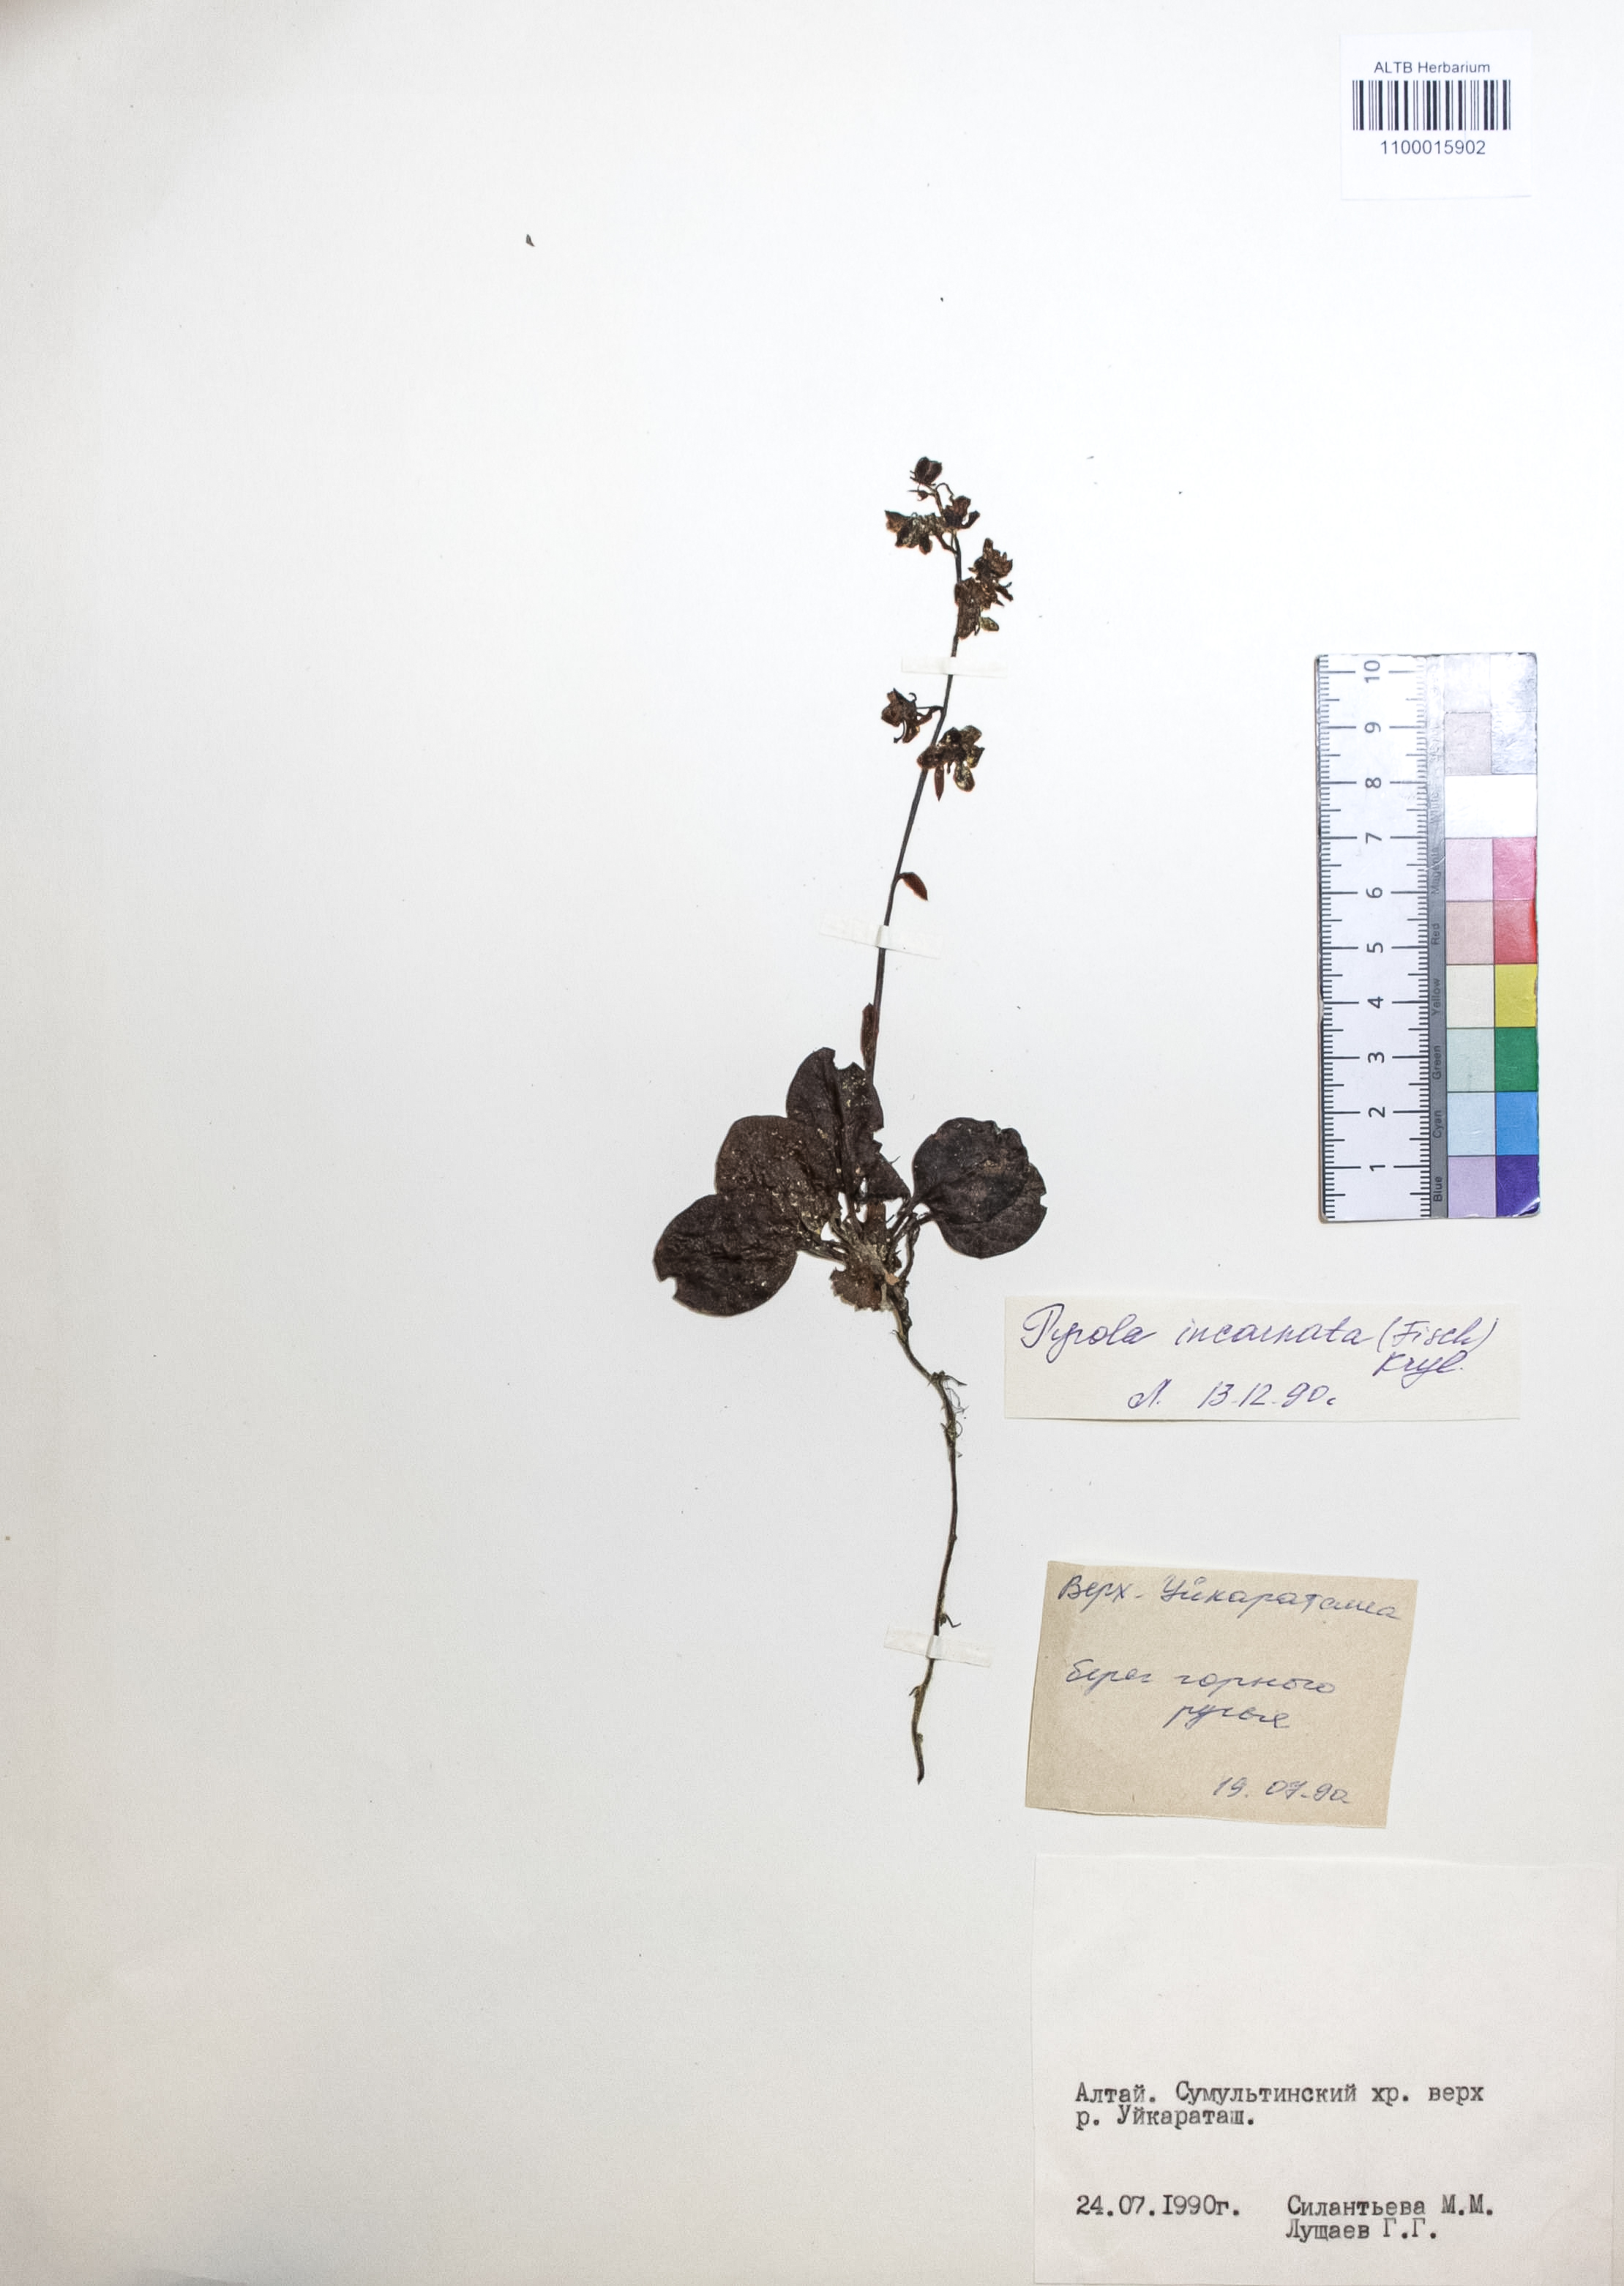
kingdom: Plantae
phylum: Tracheophyta
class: Magnoliopsida
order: Ericales
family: Ericaceae
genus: Pyrola
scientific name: Pyrola asarifolia
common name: Bog wintergreen
